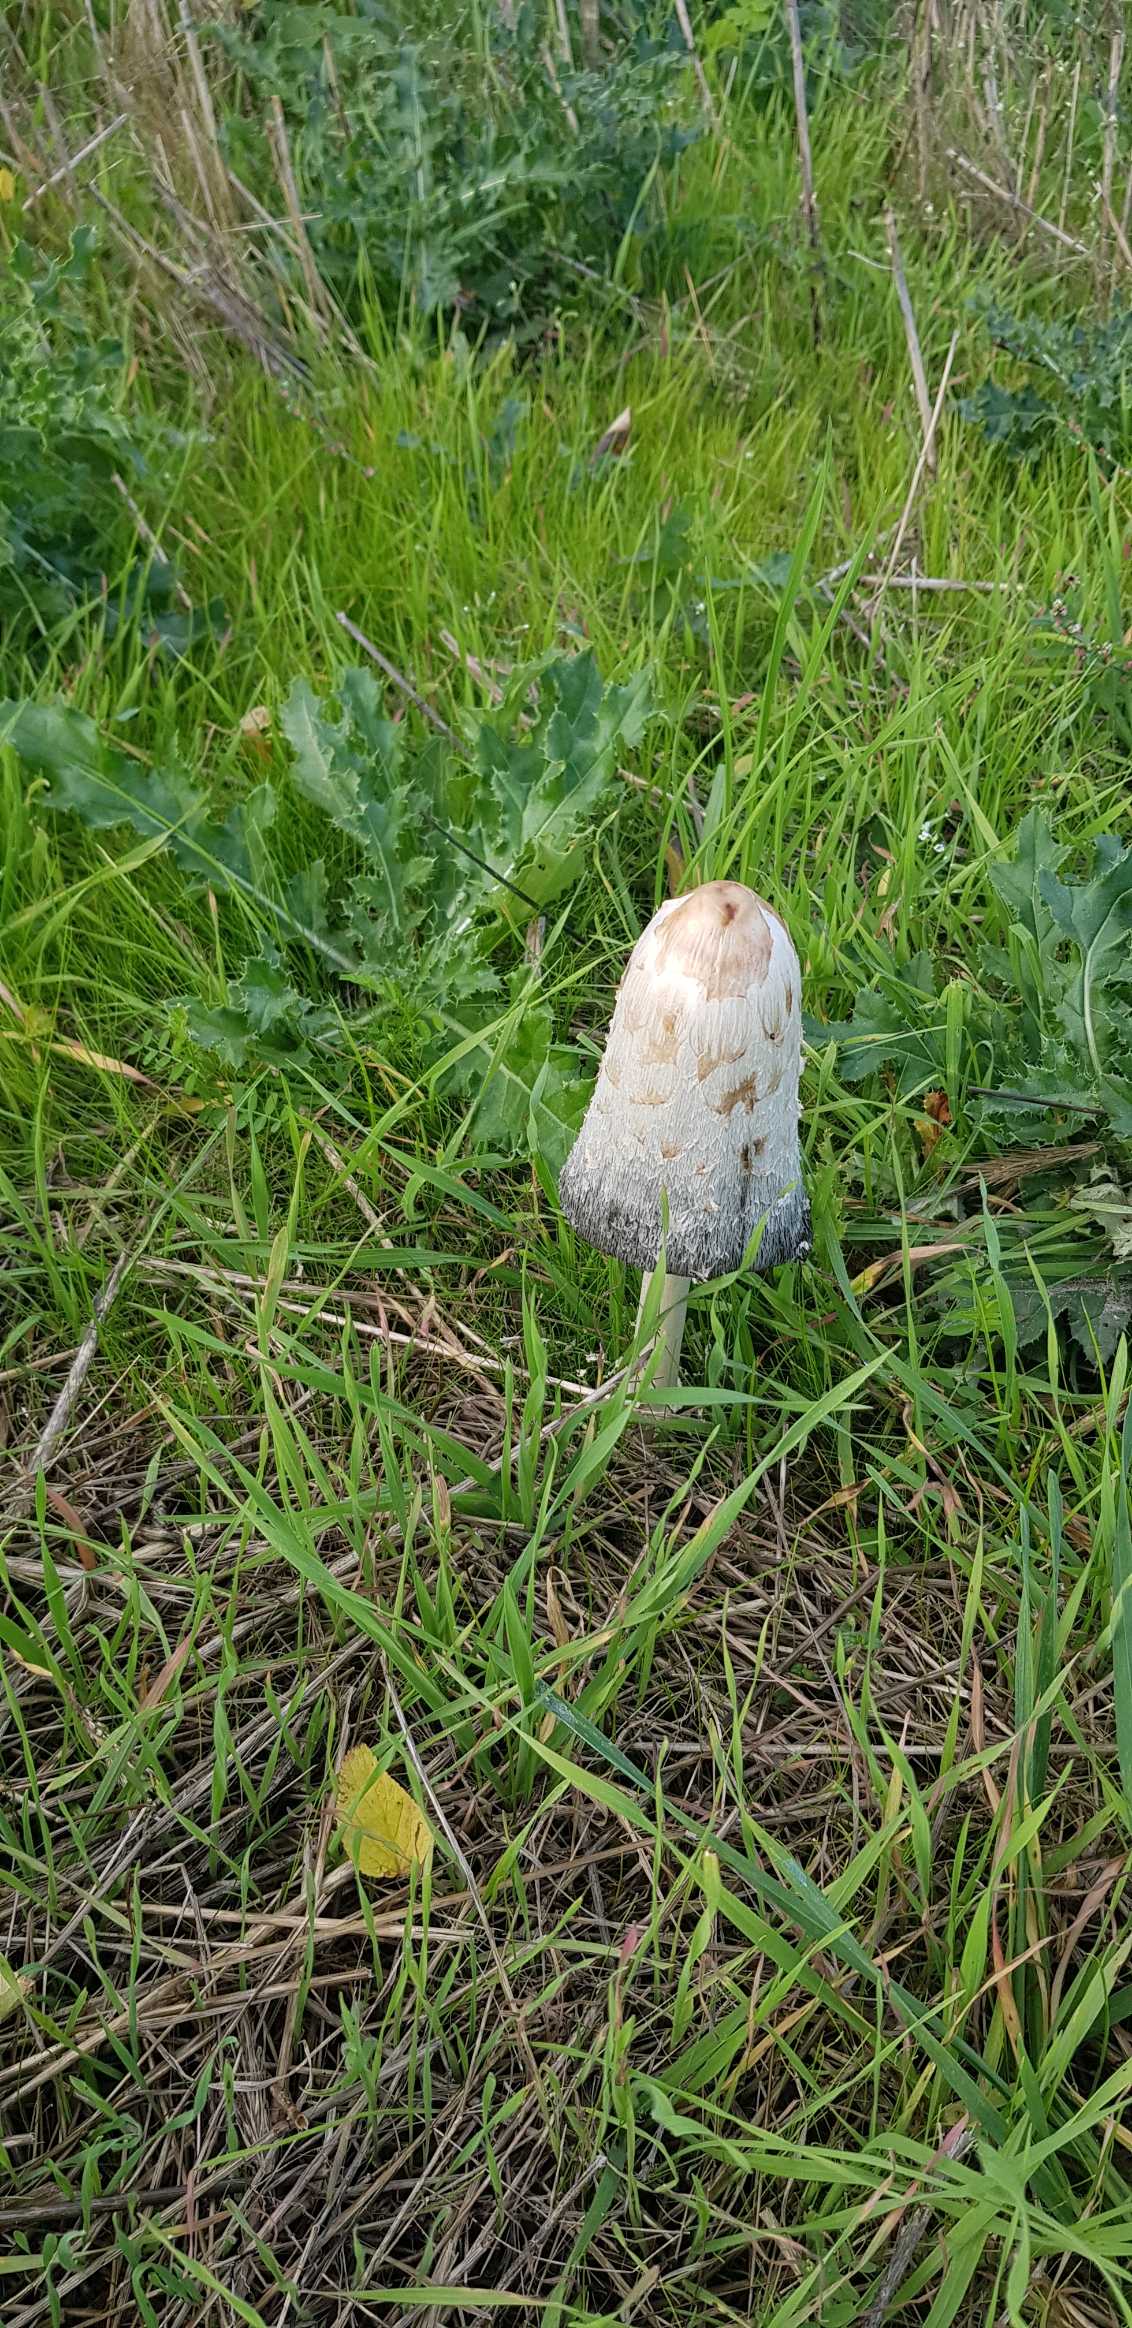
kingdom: Fungi
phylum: Basidiomycota
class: Agaricomycetes
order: Agaricales
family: Agaricaceae
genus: Coprinus
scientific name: Coprinus comatus
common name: Stor parykhat
